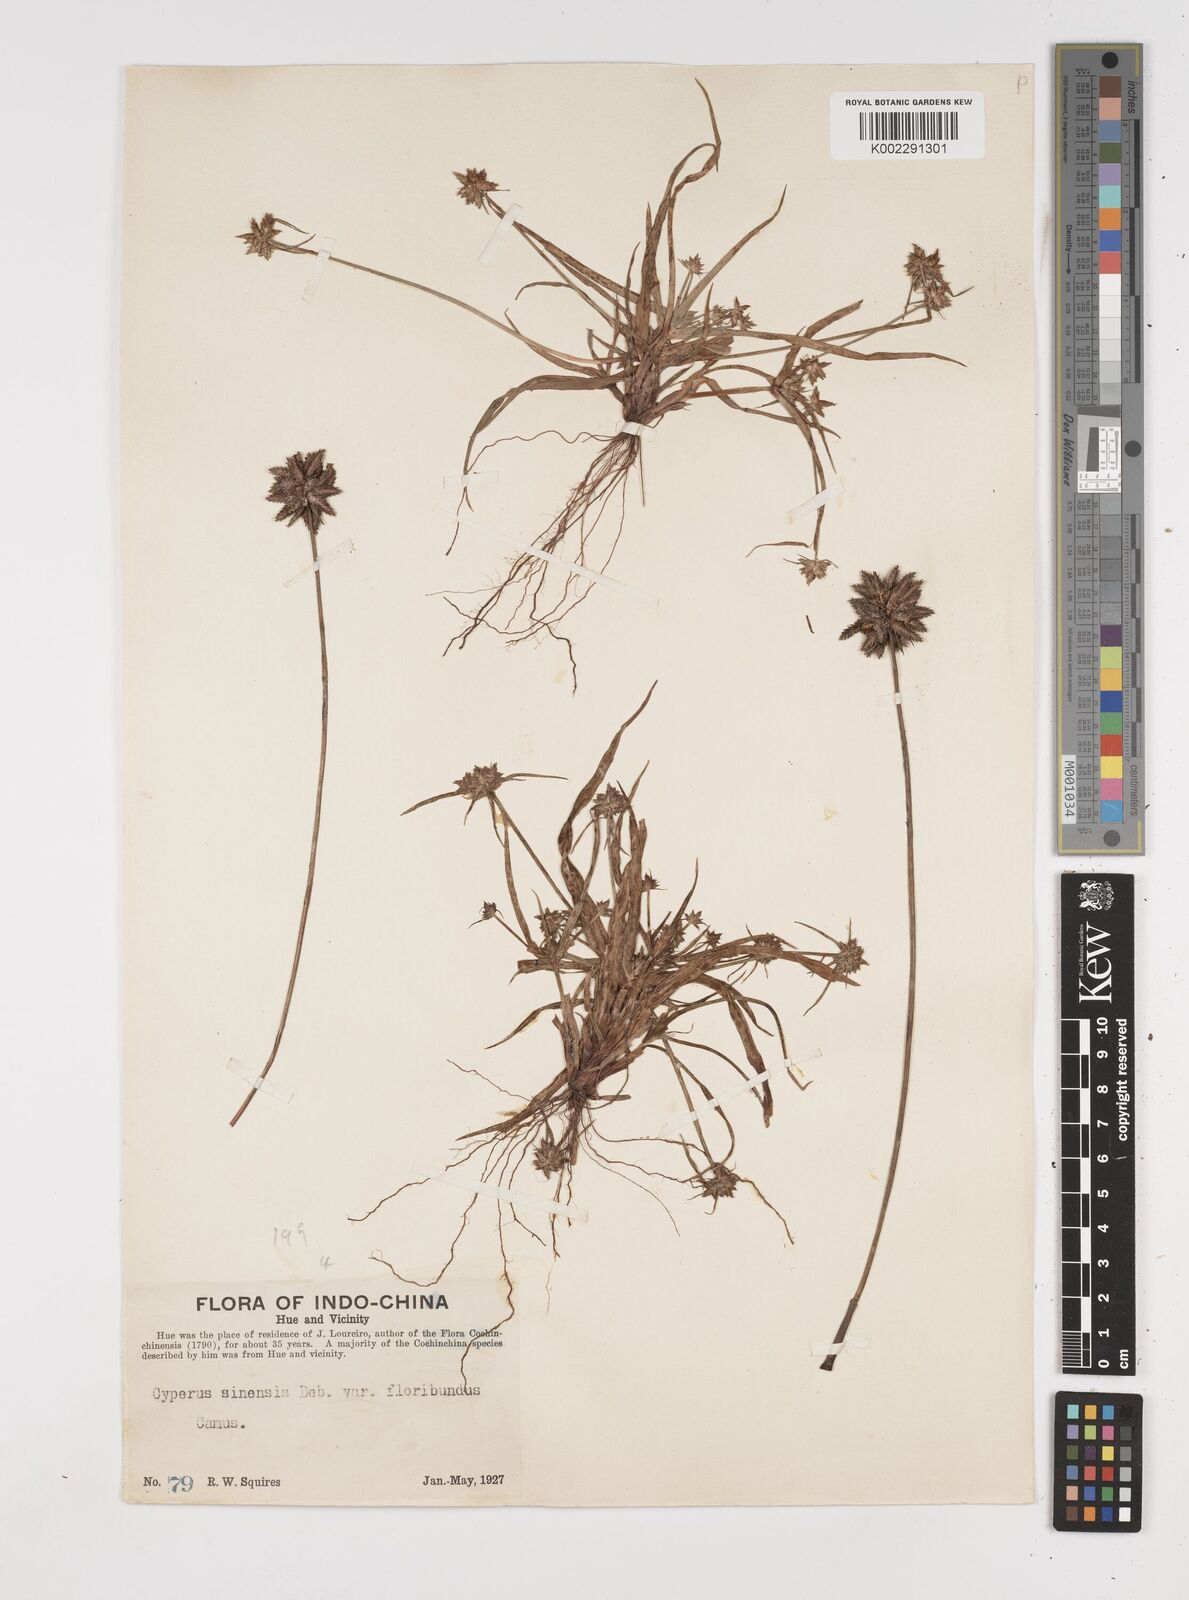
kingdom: Plantae
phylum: Tracheophyta
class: Liliopsida
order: Poales
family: Cyperaceae
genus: Cyperus
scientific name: Cyperus radians
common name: Short-stem cyperus
